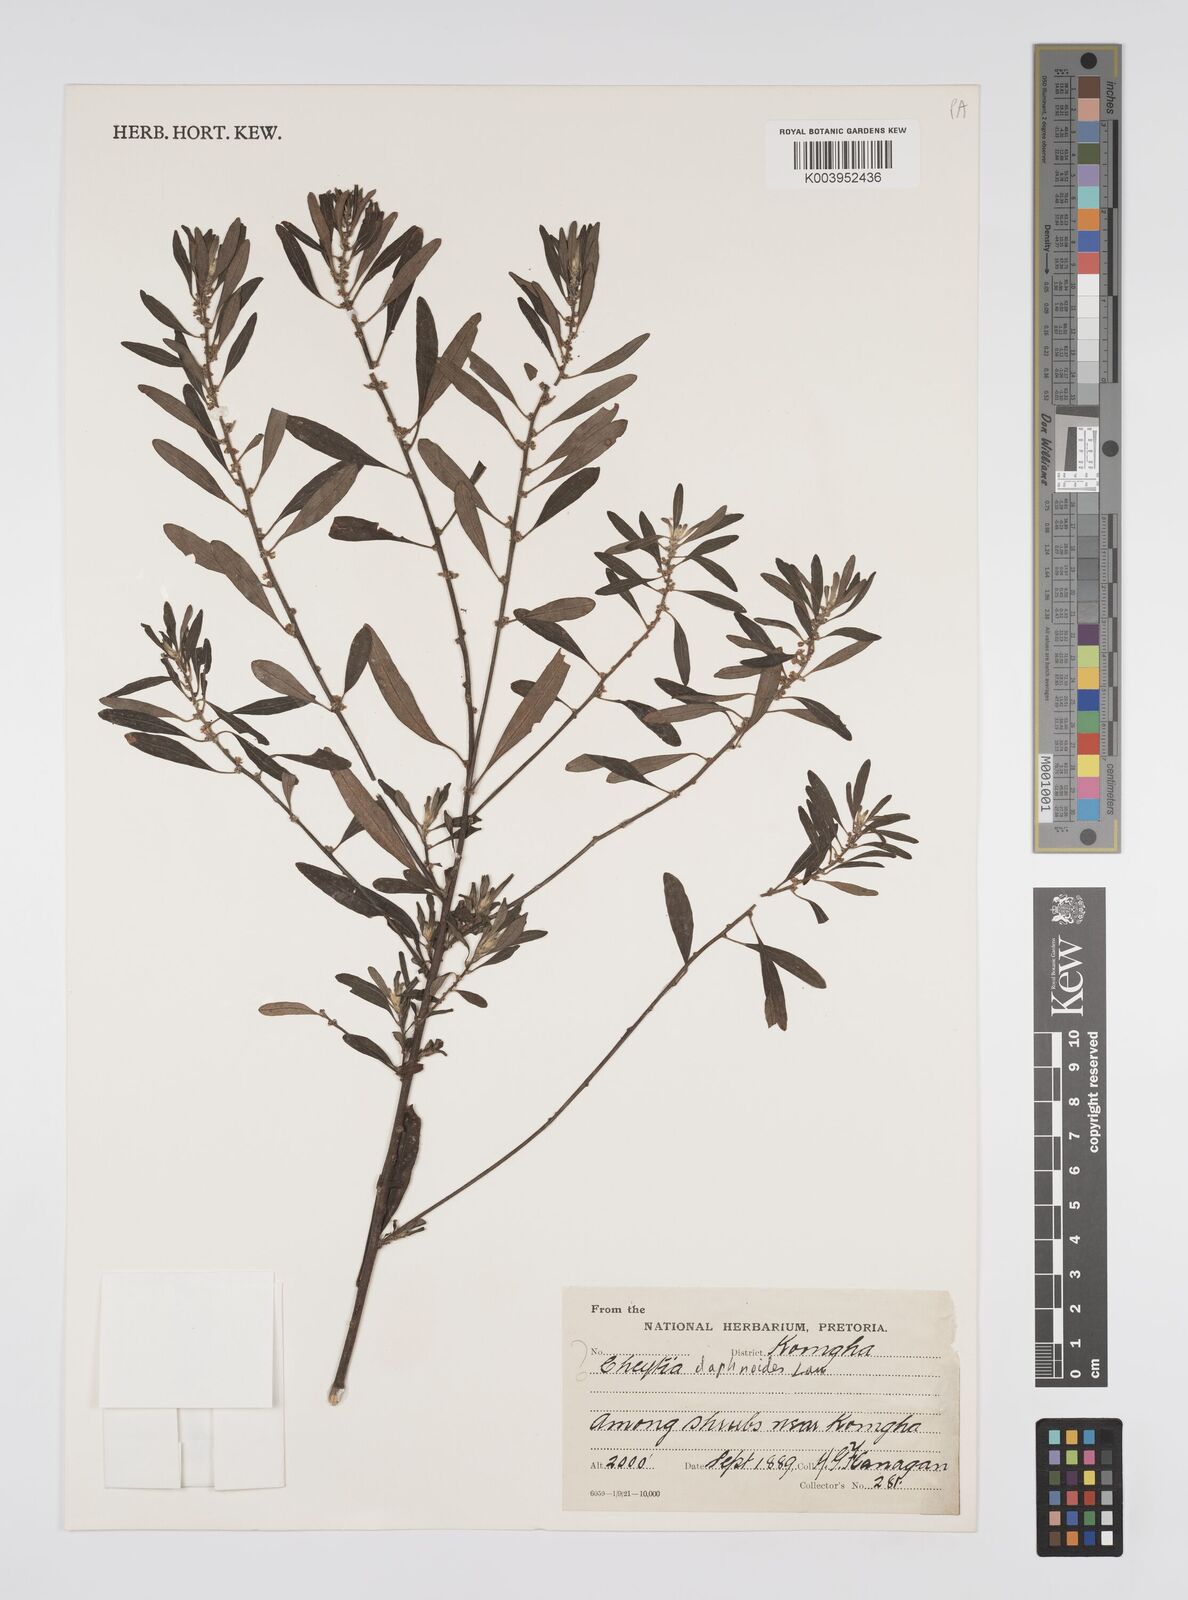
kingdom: Plantae
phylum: Tracheophyta
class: Magnoliopsida
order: Malpighiales
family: Peraceae
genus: Clutia
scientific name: Clutia daphnoides
